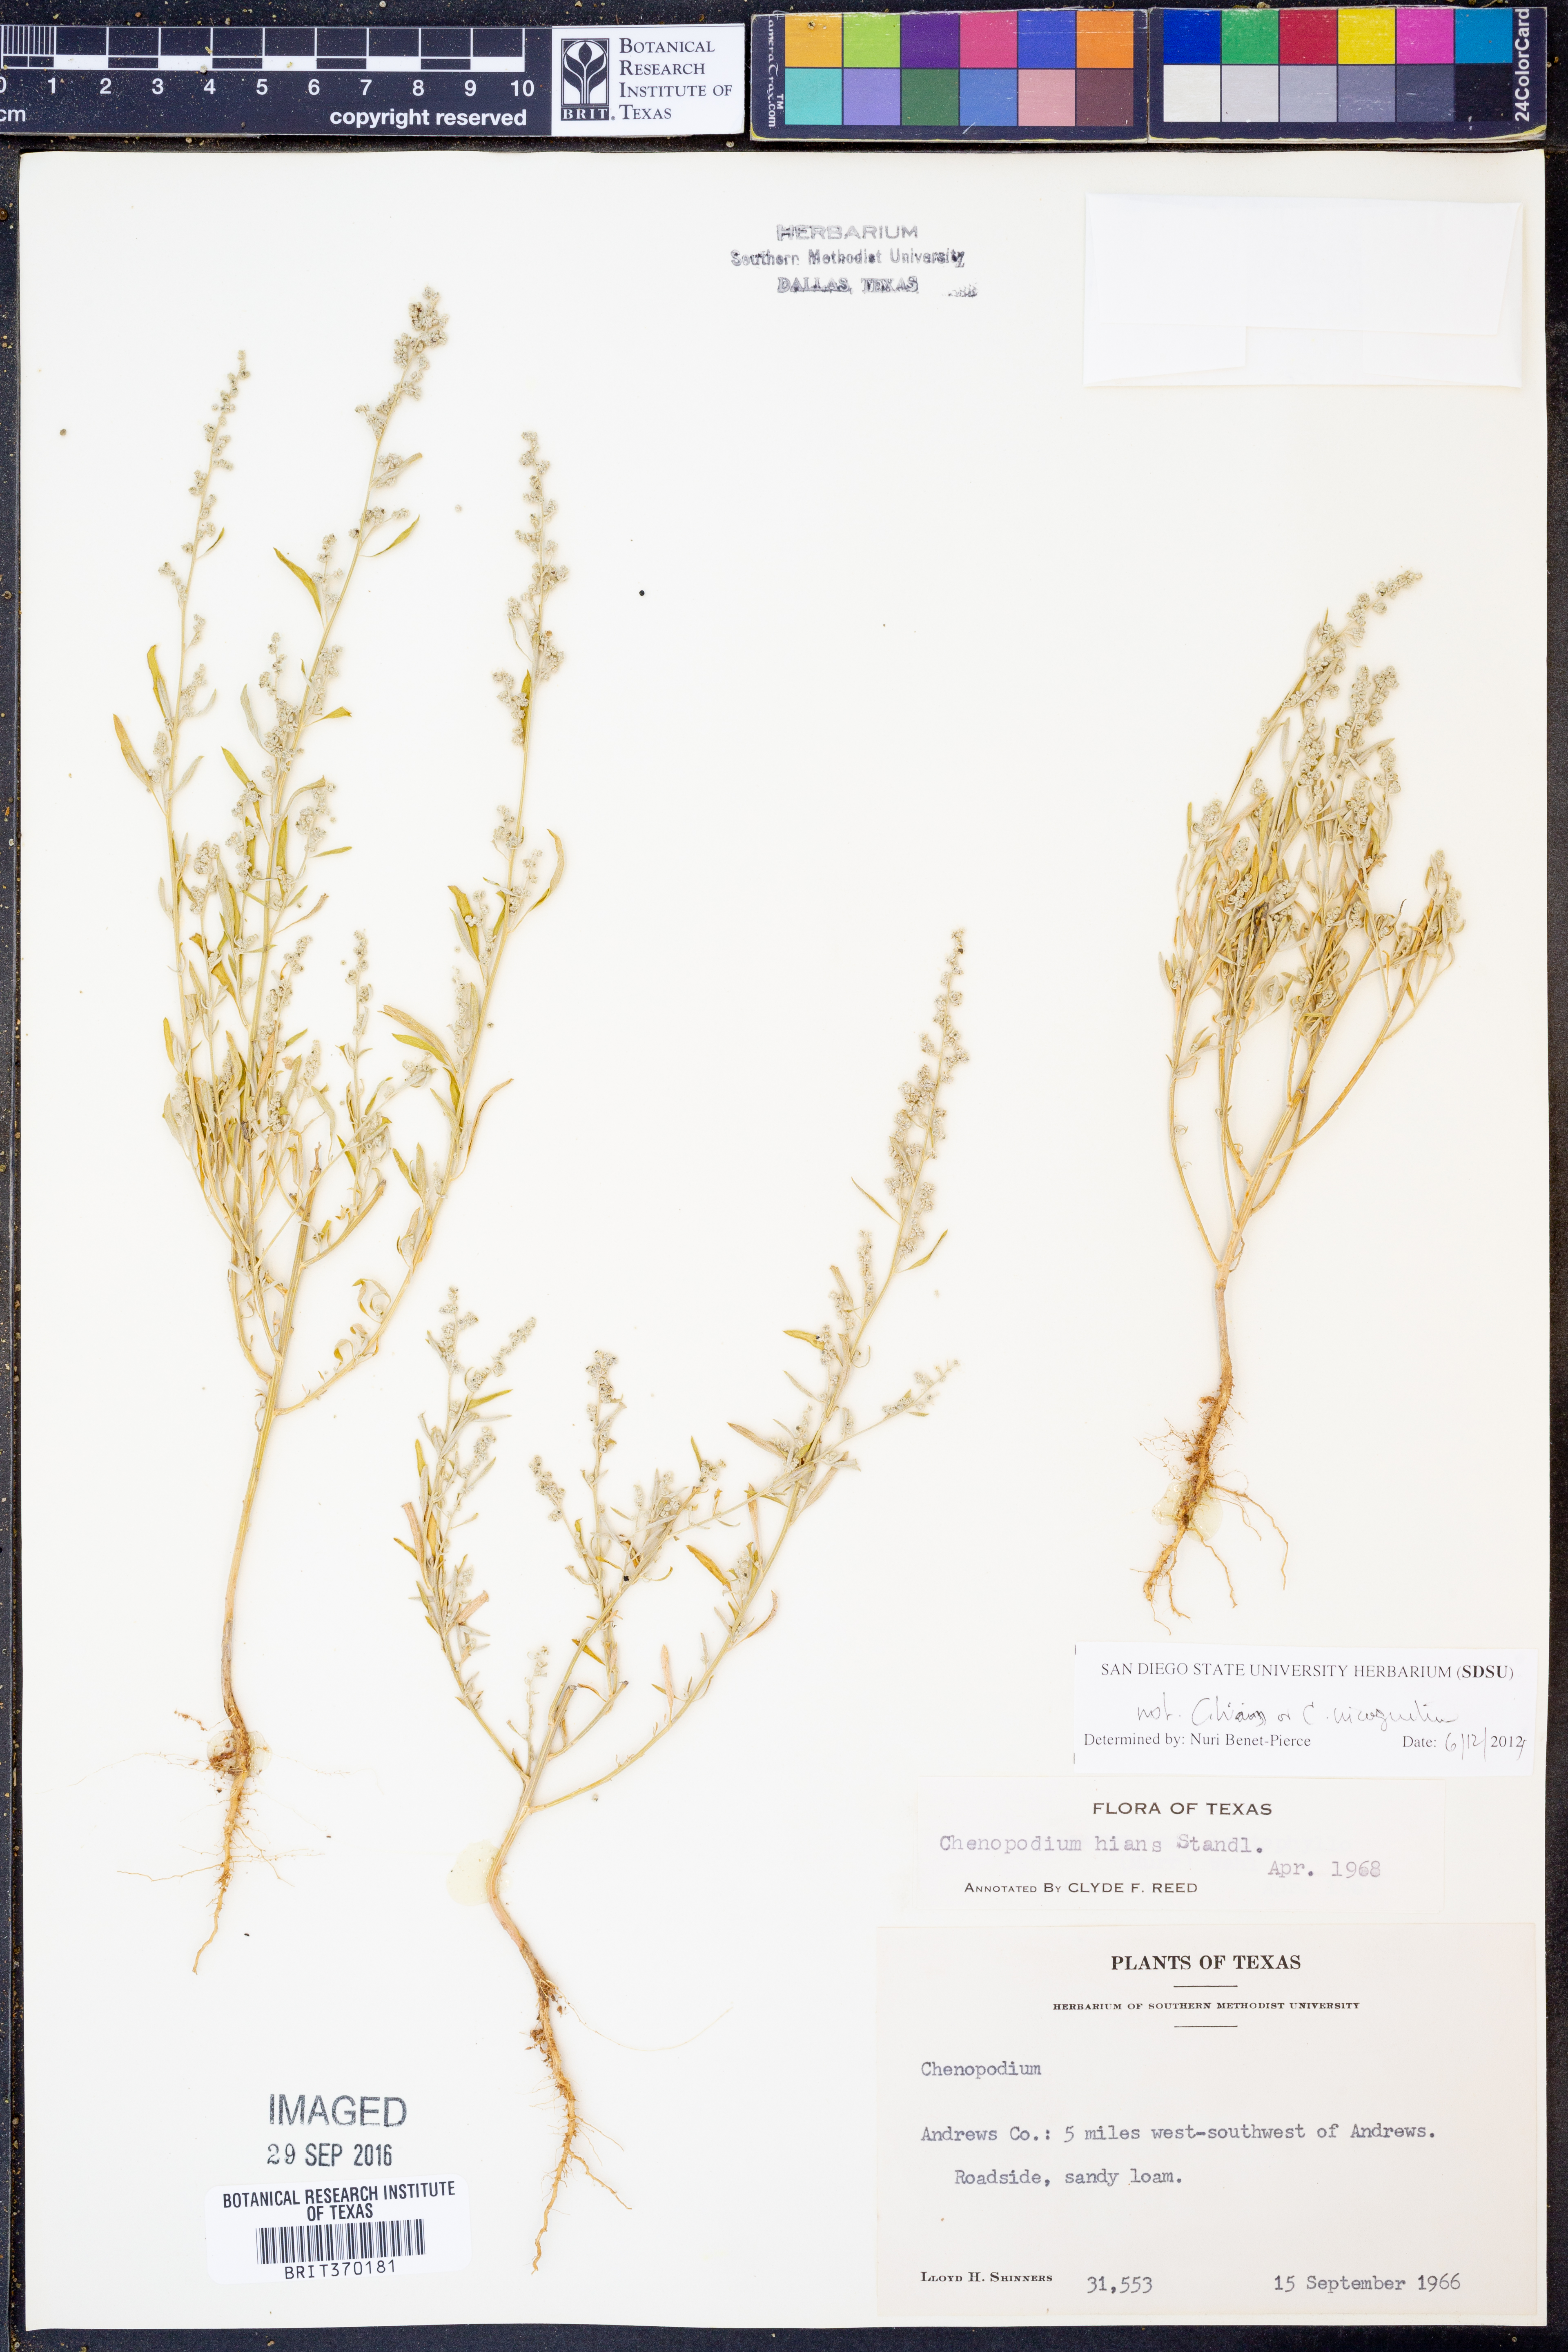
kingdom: Plantae
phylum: Tracheophyta
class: Magnoliopsida
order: Caryophyllales
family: Amaranthaceae
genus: Chenopodium
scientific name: Chenopodium
